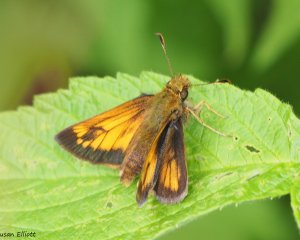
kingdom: Animalia
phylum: Arthropoda
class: Insecta
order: Lepidoptera
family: Hesperiidae
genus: Lon
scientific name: Lon hobomok
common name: Hobomok Skipper
